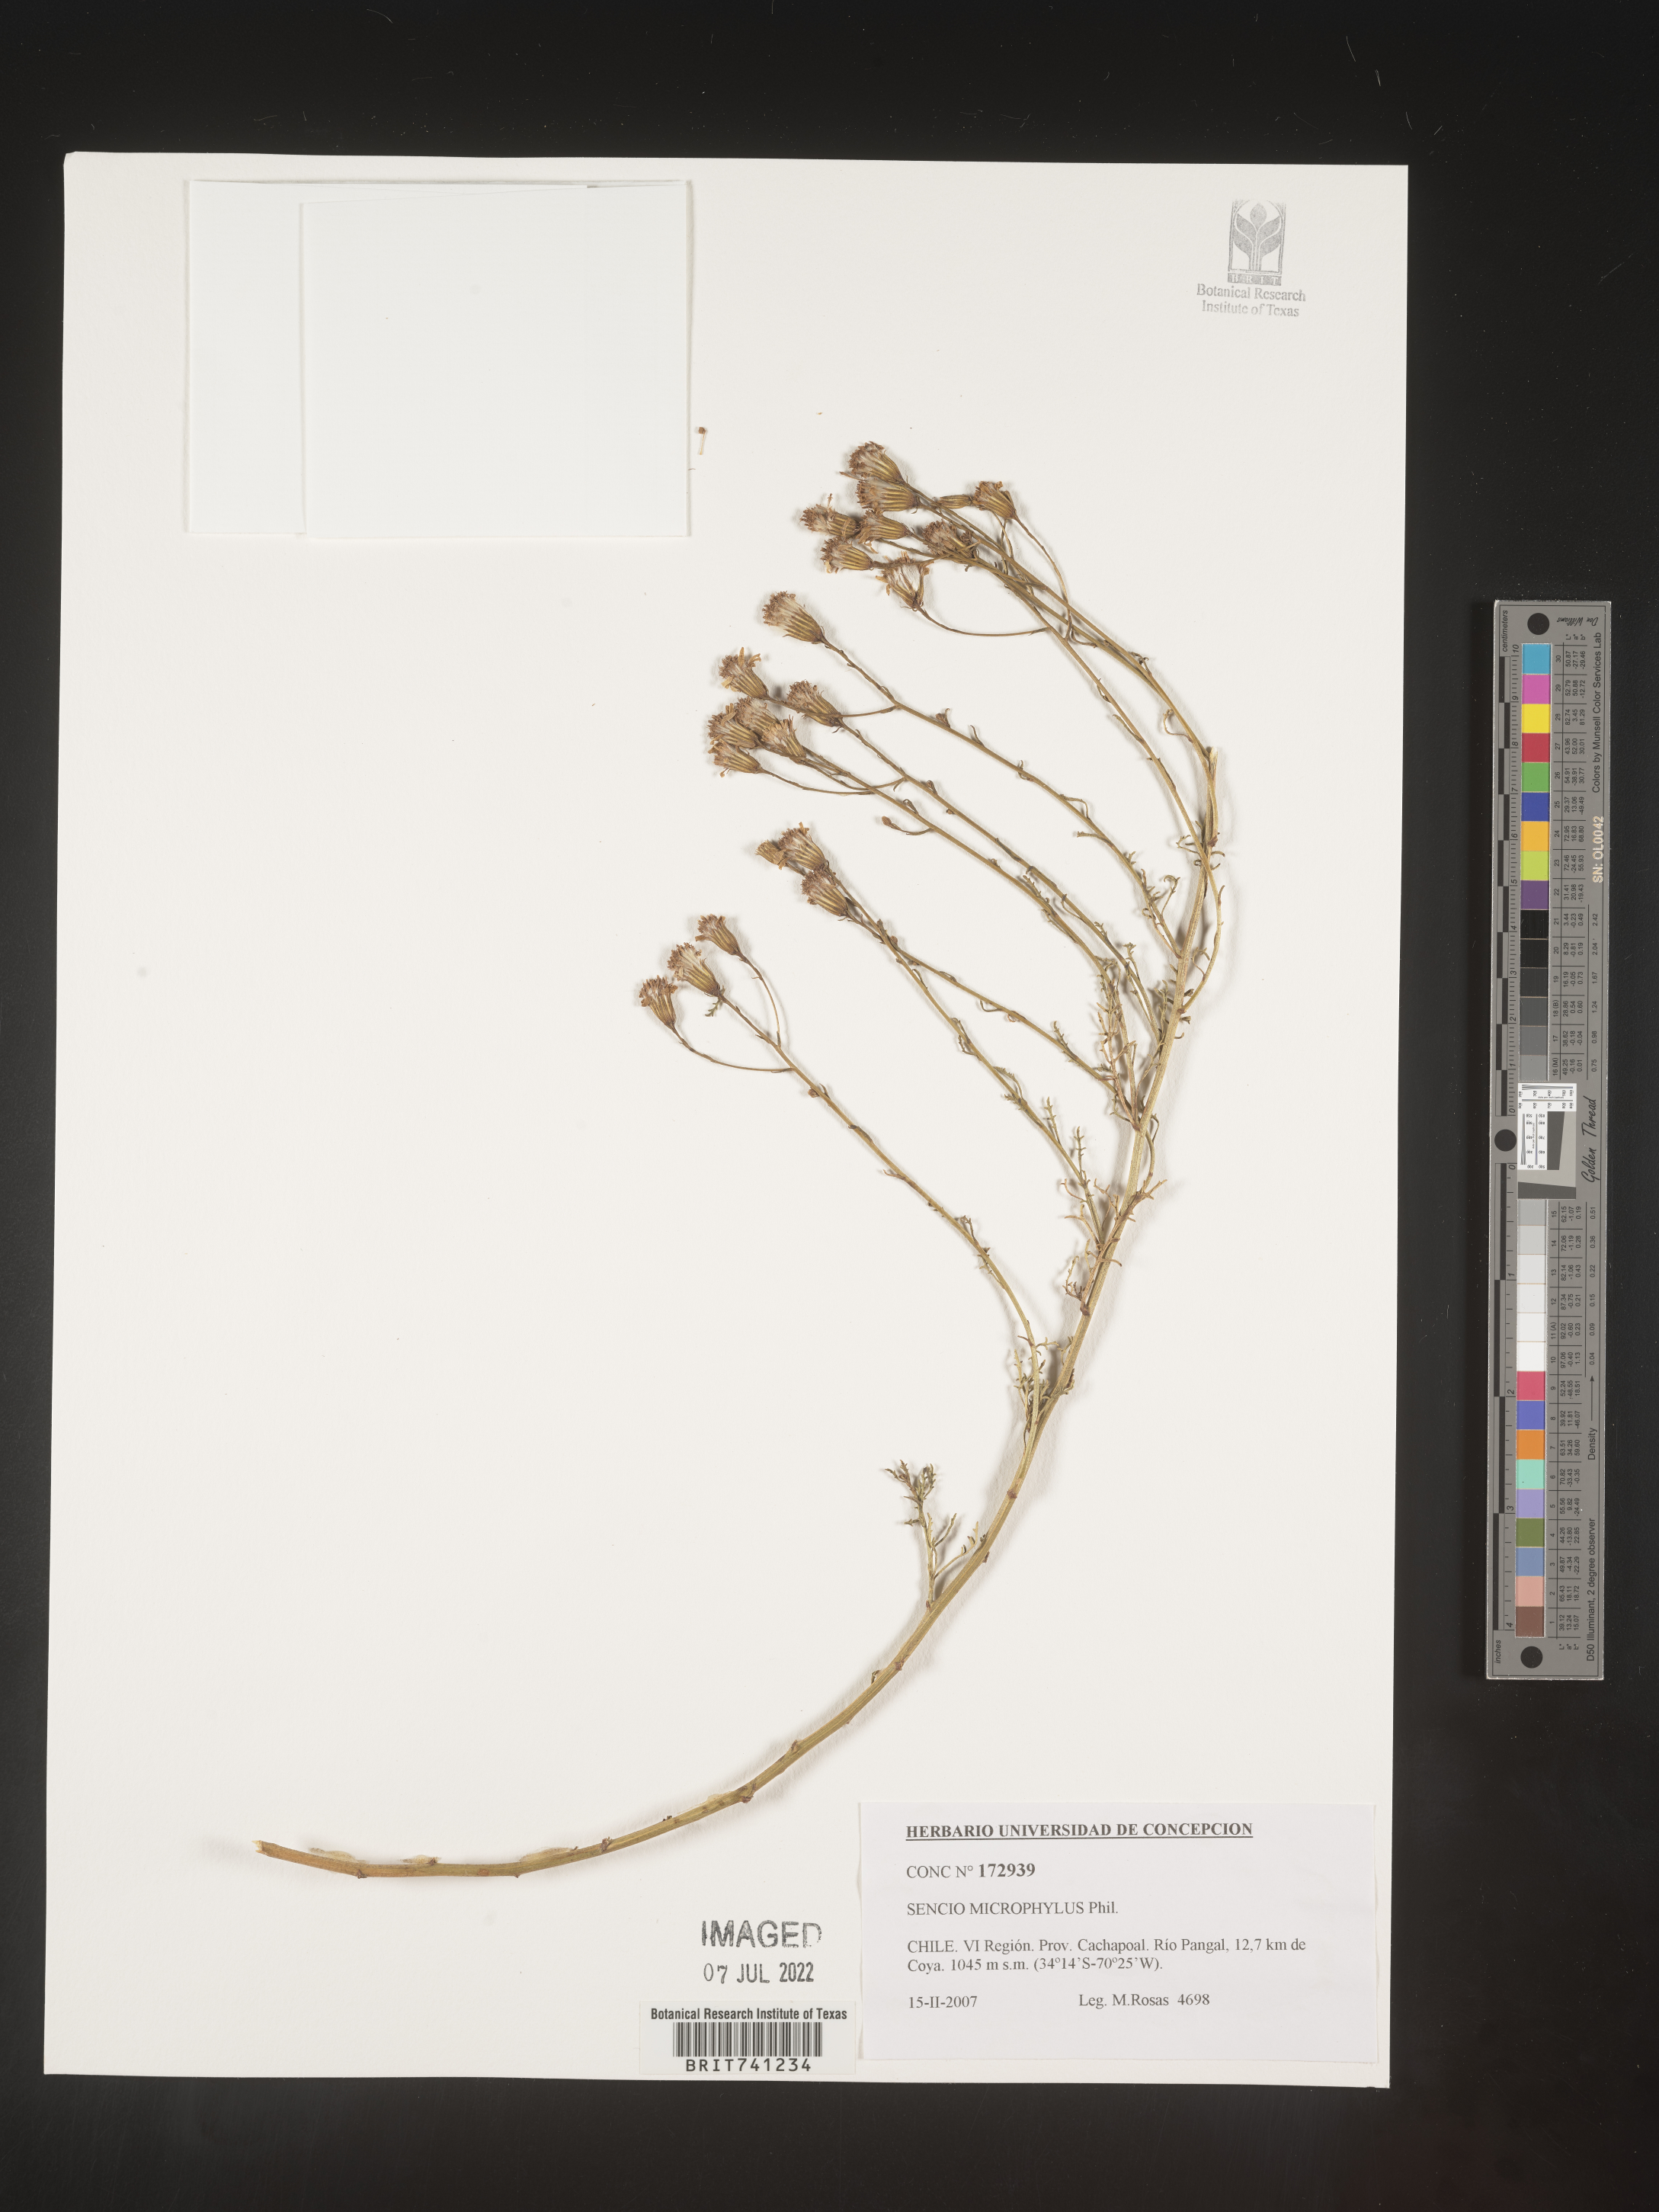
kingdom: Plantae
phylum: Tracheophyta
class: Magnoliopsida
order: Asterales
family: Asteraceae
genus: Senecio
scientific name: Senecio
